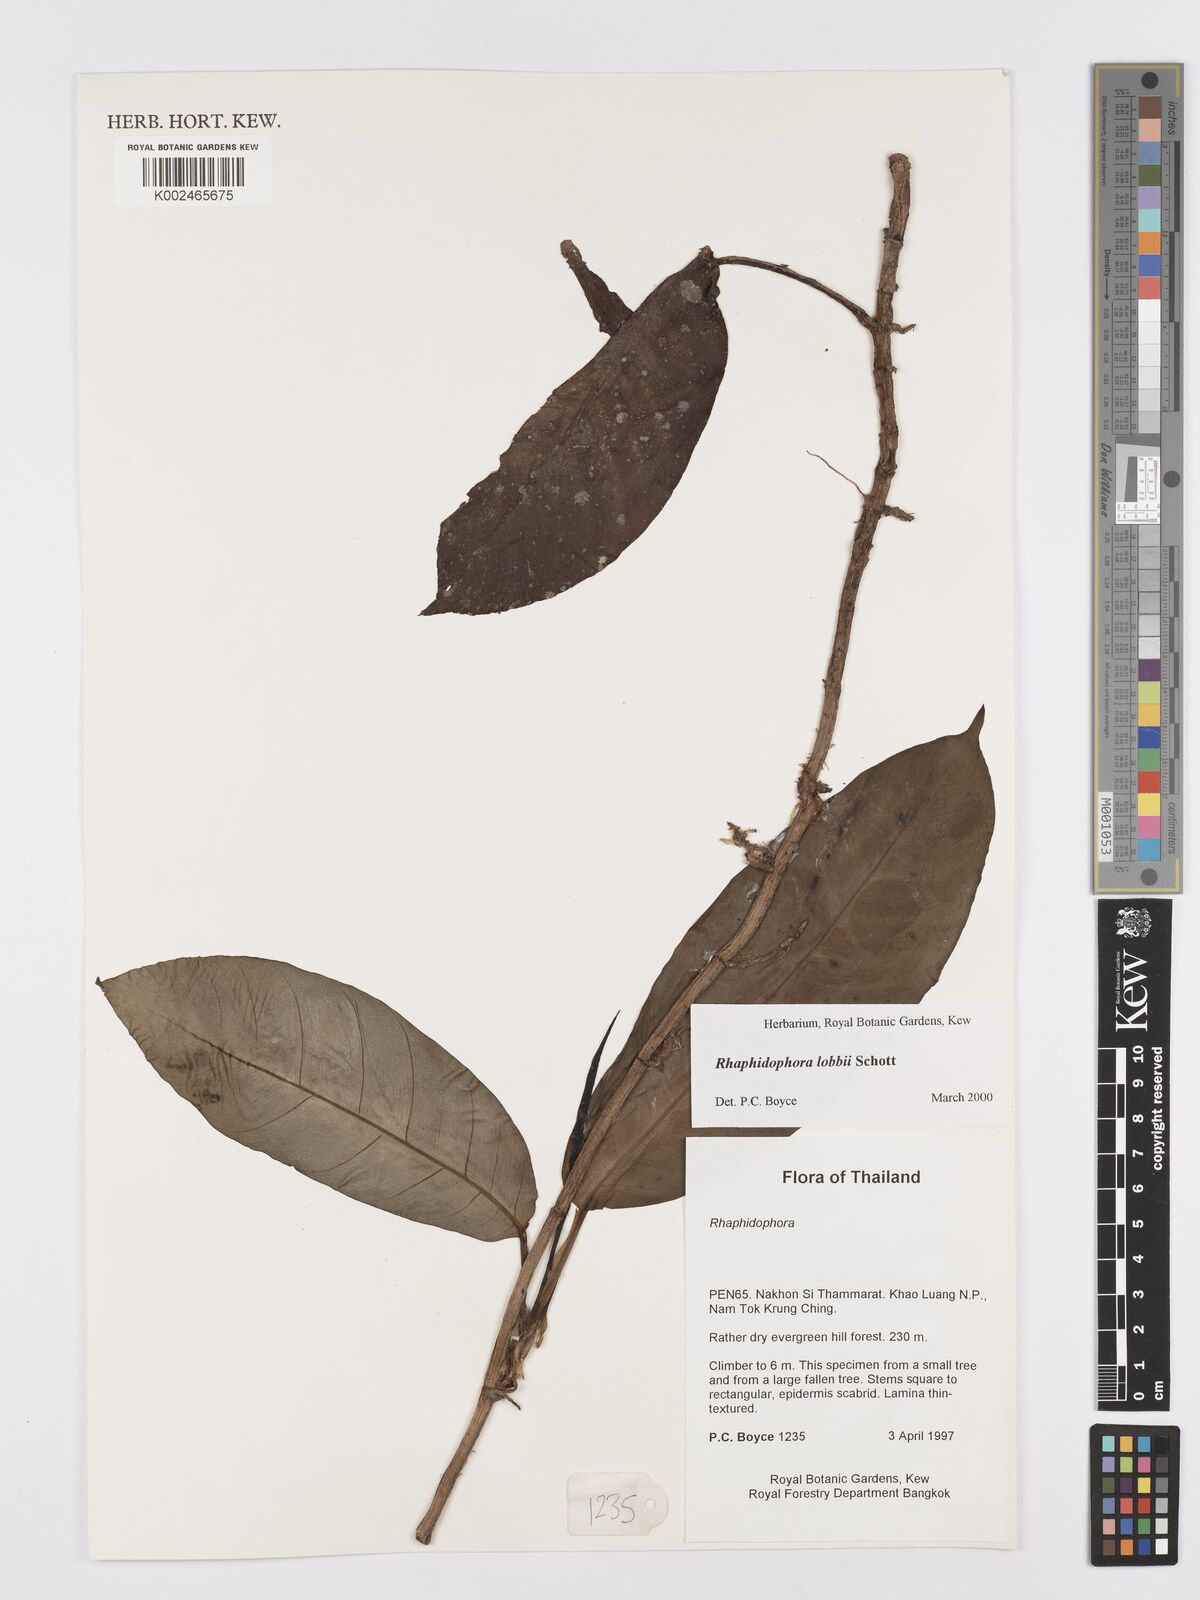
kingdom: Plantae
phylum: Tracheophyta
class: Liliopsida
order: Alismatales
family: Araceae
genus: Rhaphidophora
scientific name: Rhaphidophora lobbii
